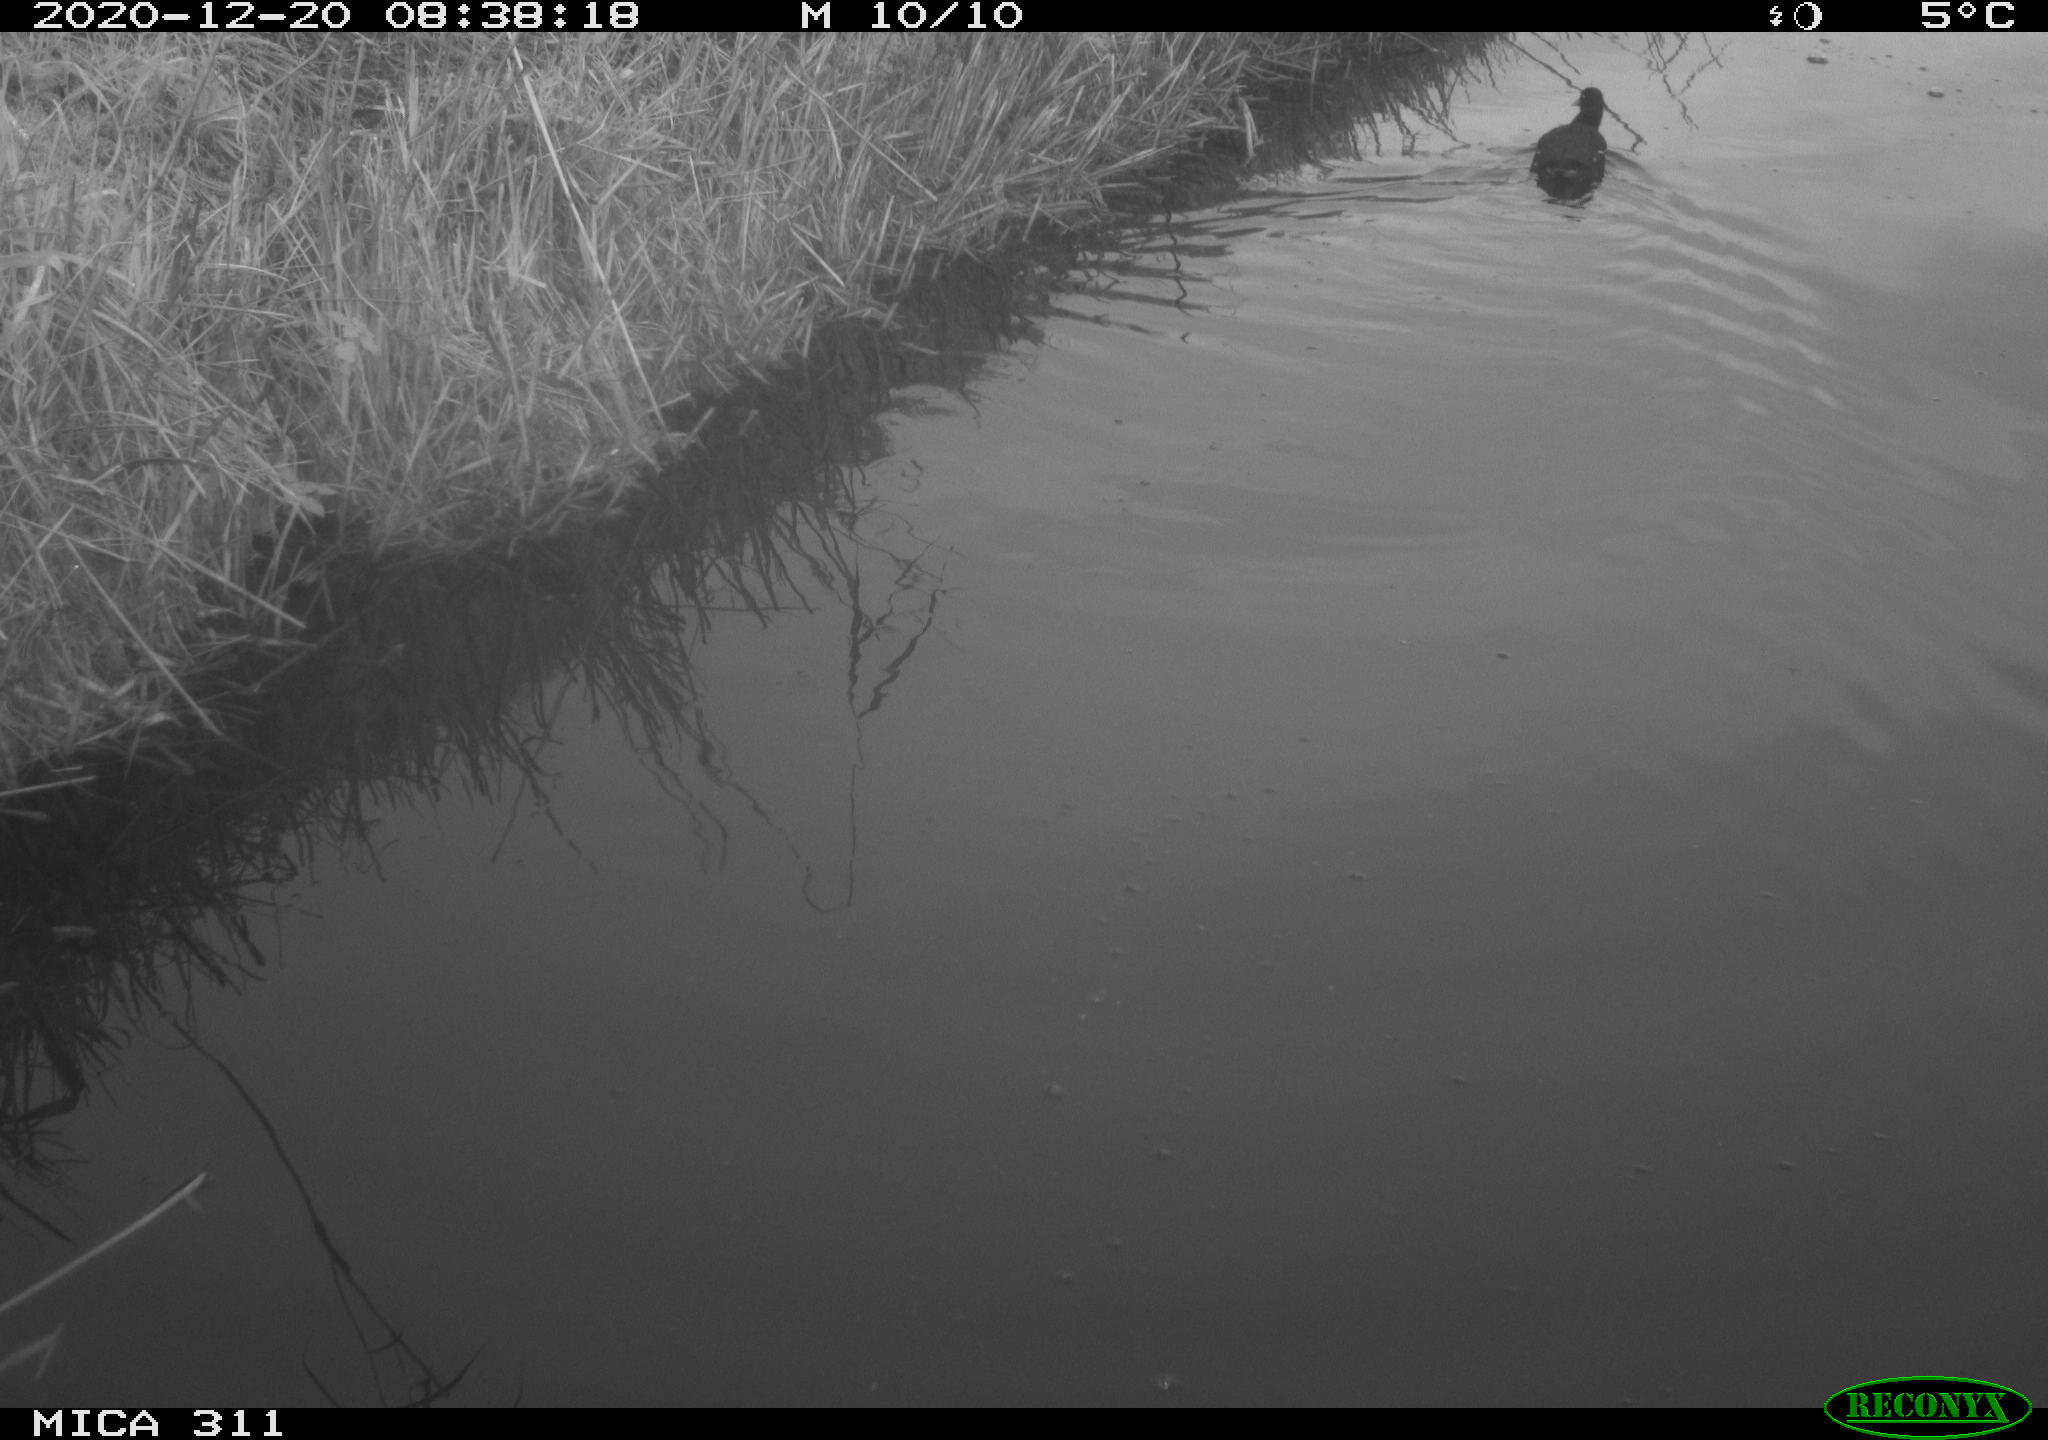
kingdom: Animalia
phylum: Chordata
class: Aves
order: Gruiformes
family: Rallidae
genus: Gallinula
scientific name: Gallinula chloropus
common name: Common moorhen
